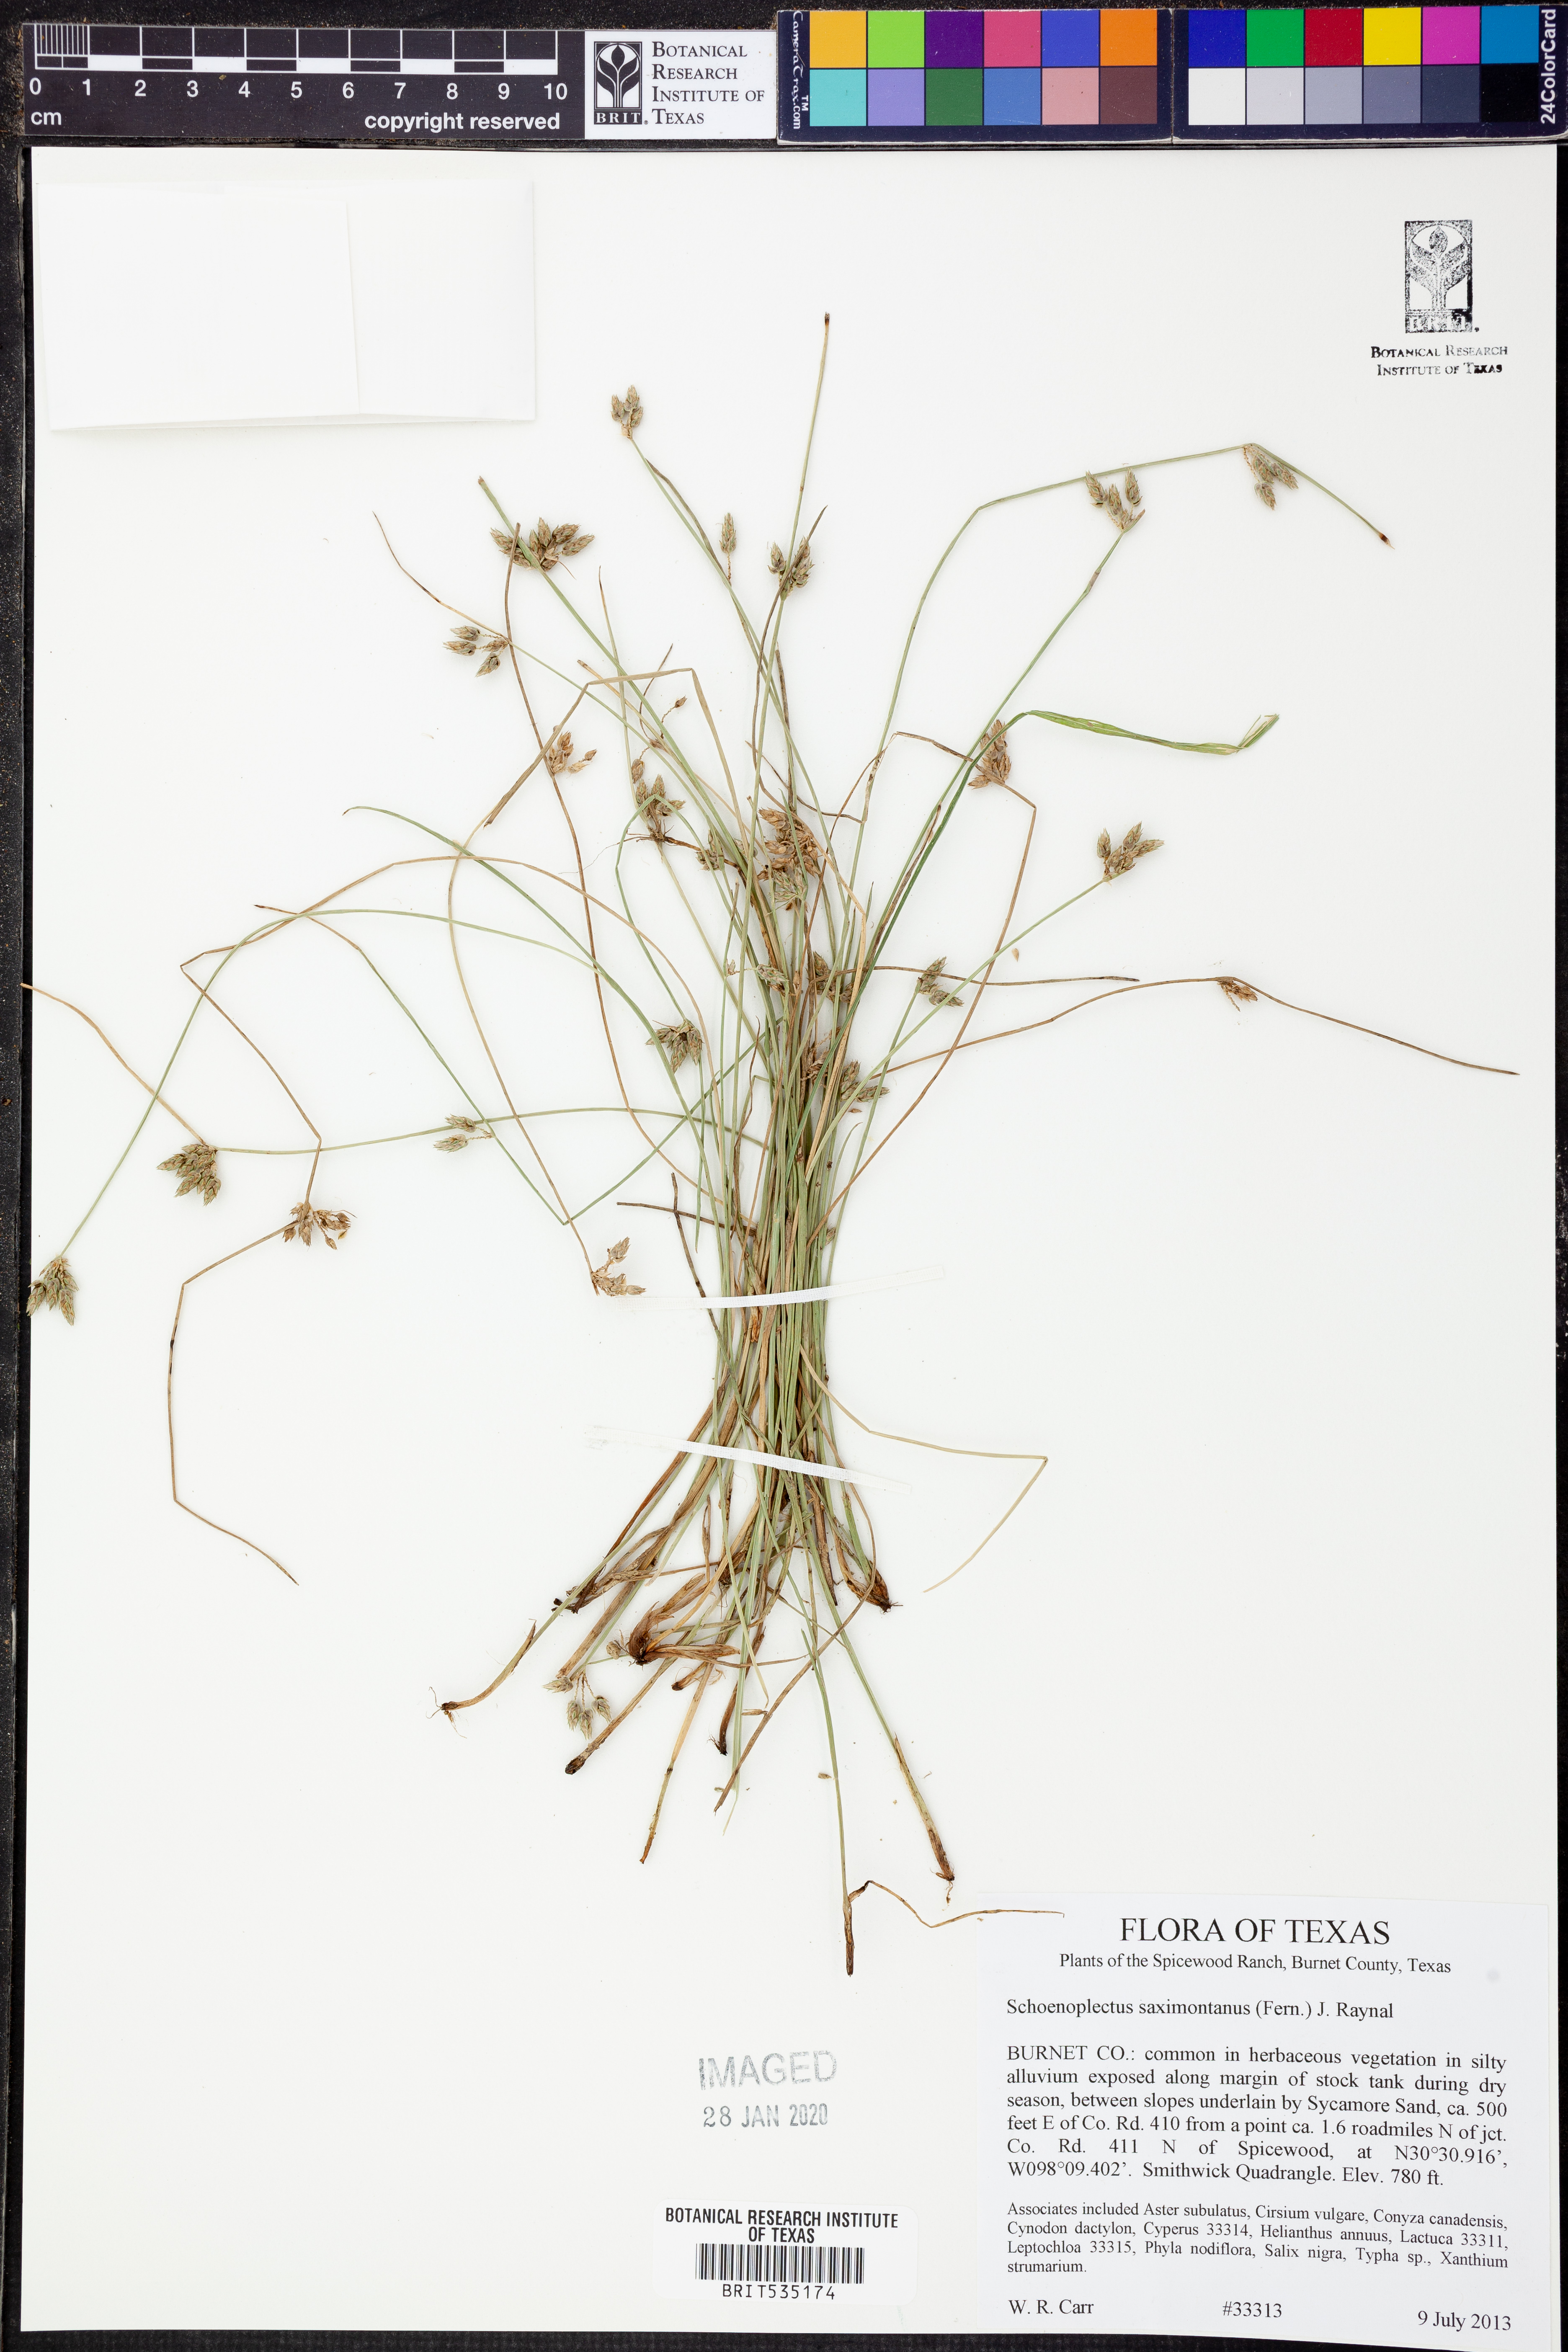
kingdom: Plantae
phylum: Tracheophyta
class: Liliopsida
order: Poales
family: Cyperaceae
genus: Schoenoplectiella
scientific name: Schoenoplectiella saximontana
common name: Rocky mountain clubrush
